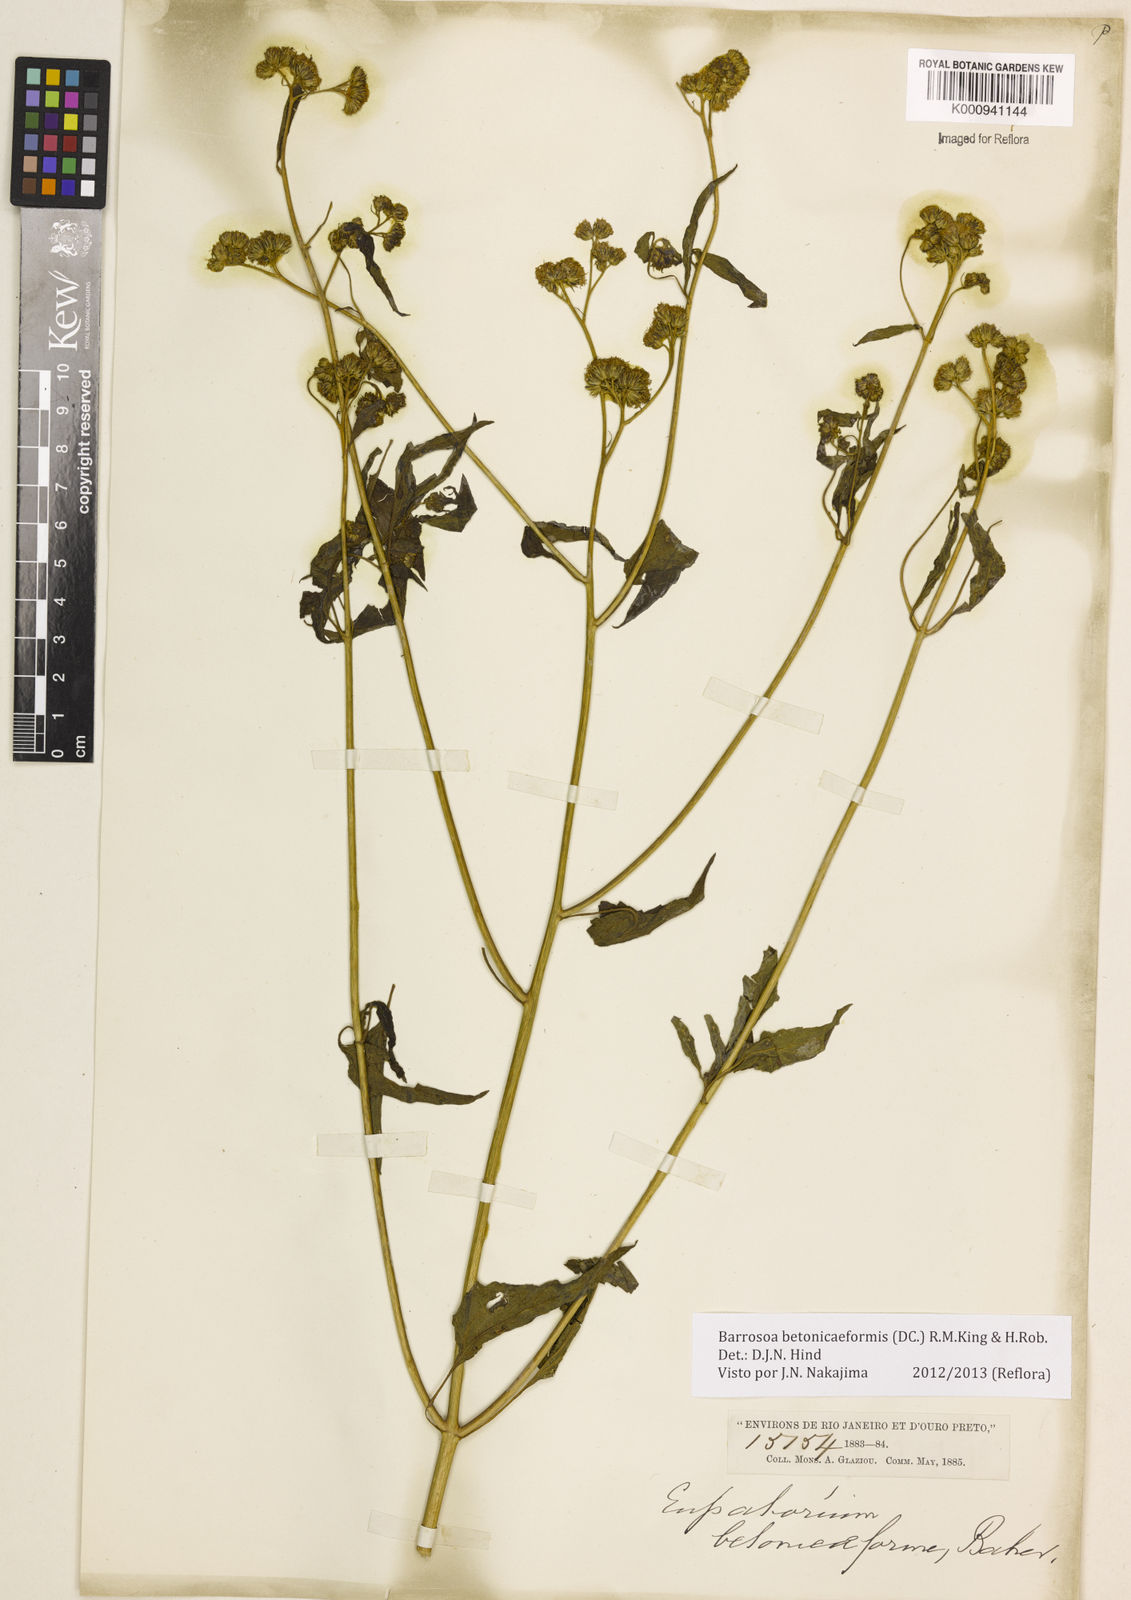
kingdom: Plantae
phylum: Tracheophyta
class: Magnoliopsida
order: Asterales
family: Asteraceae
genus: Barrosoa
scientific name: Barrosoa betoniciformis
